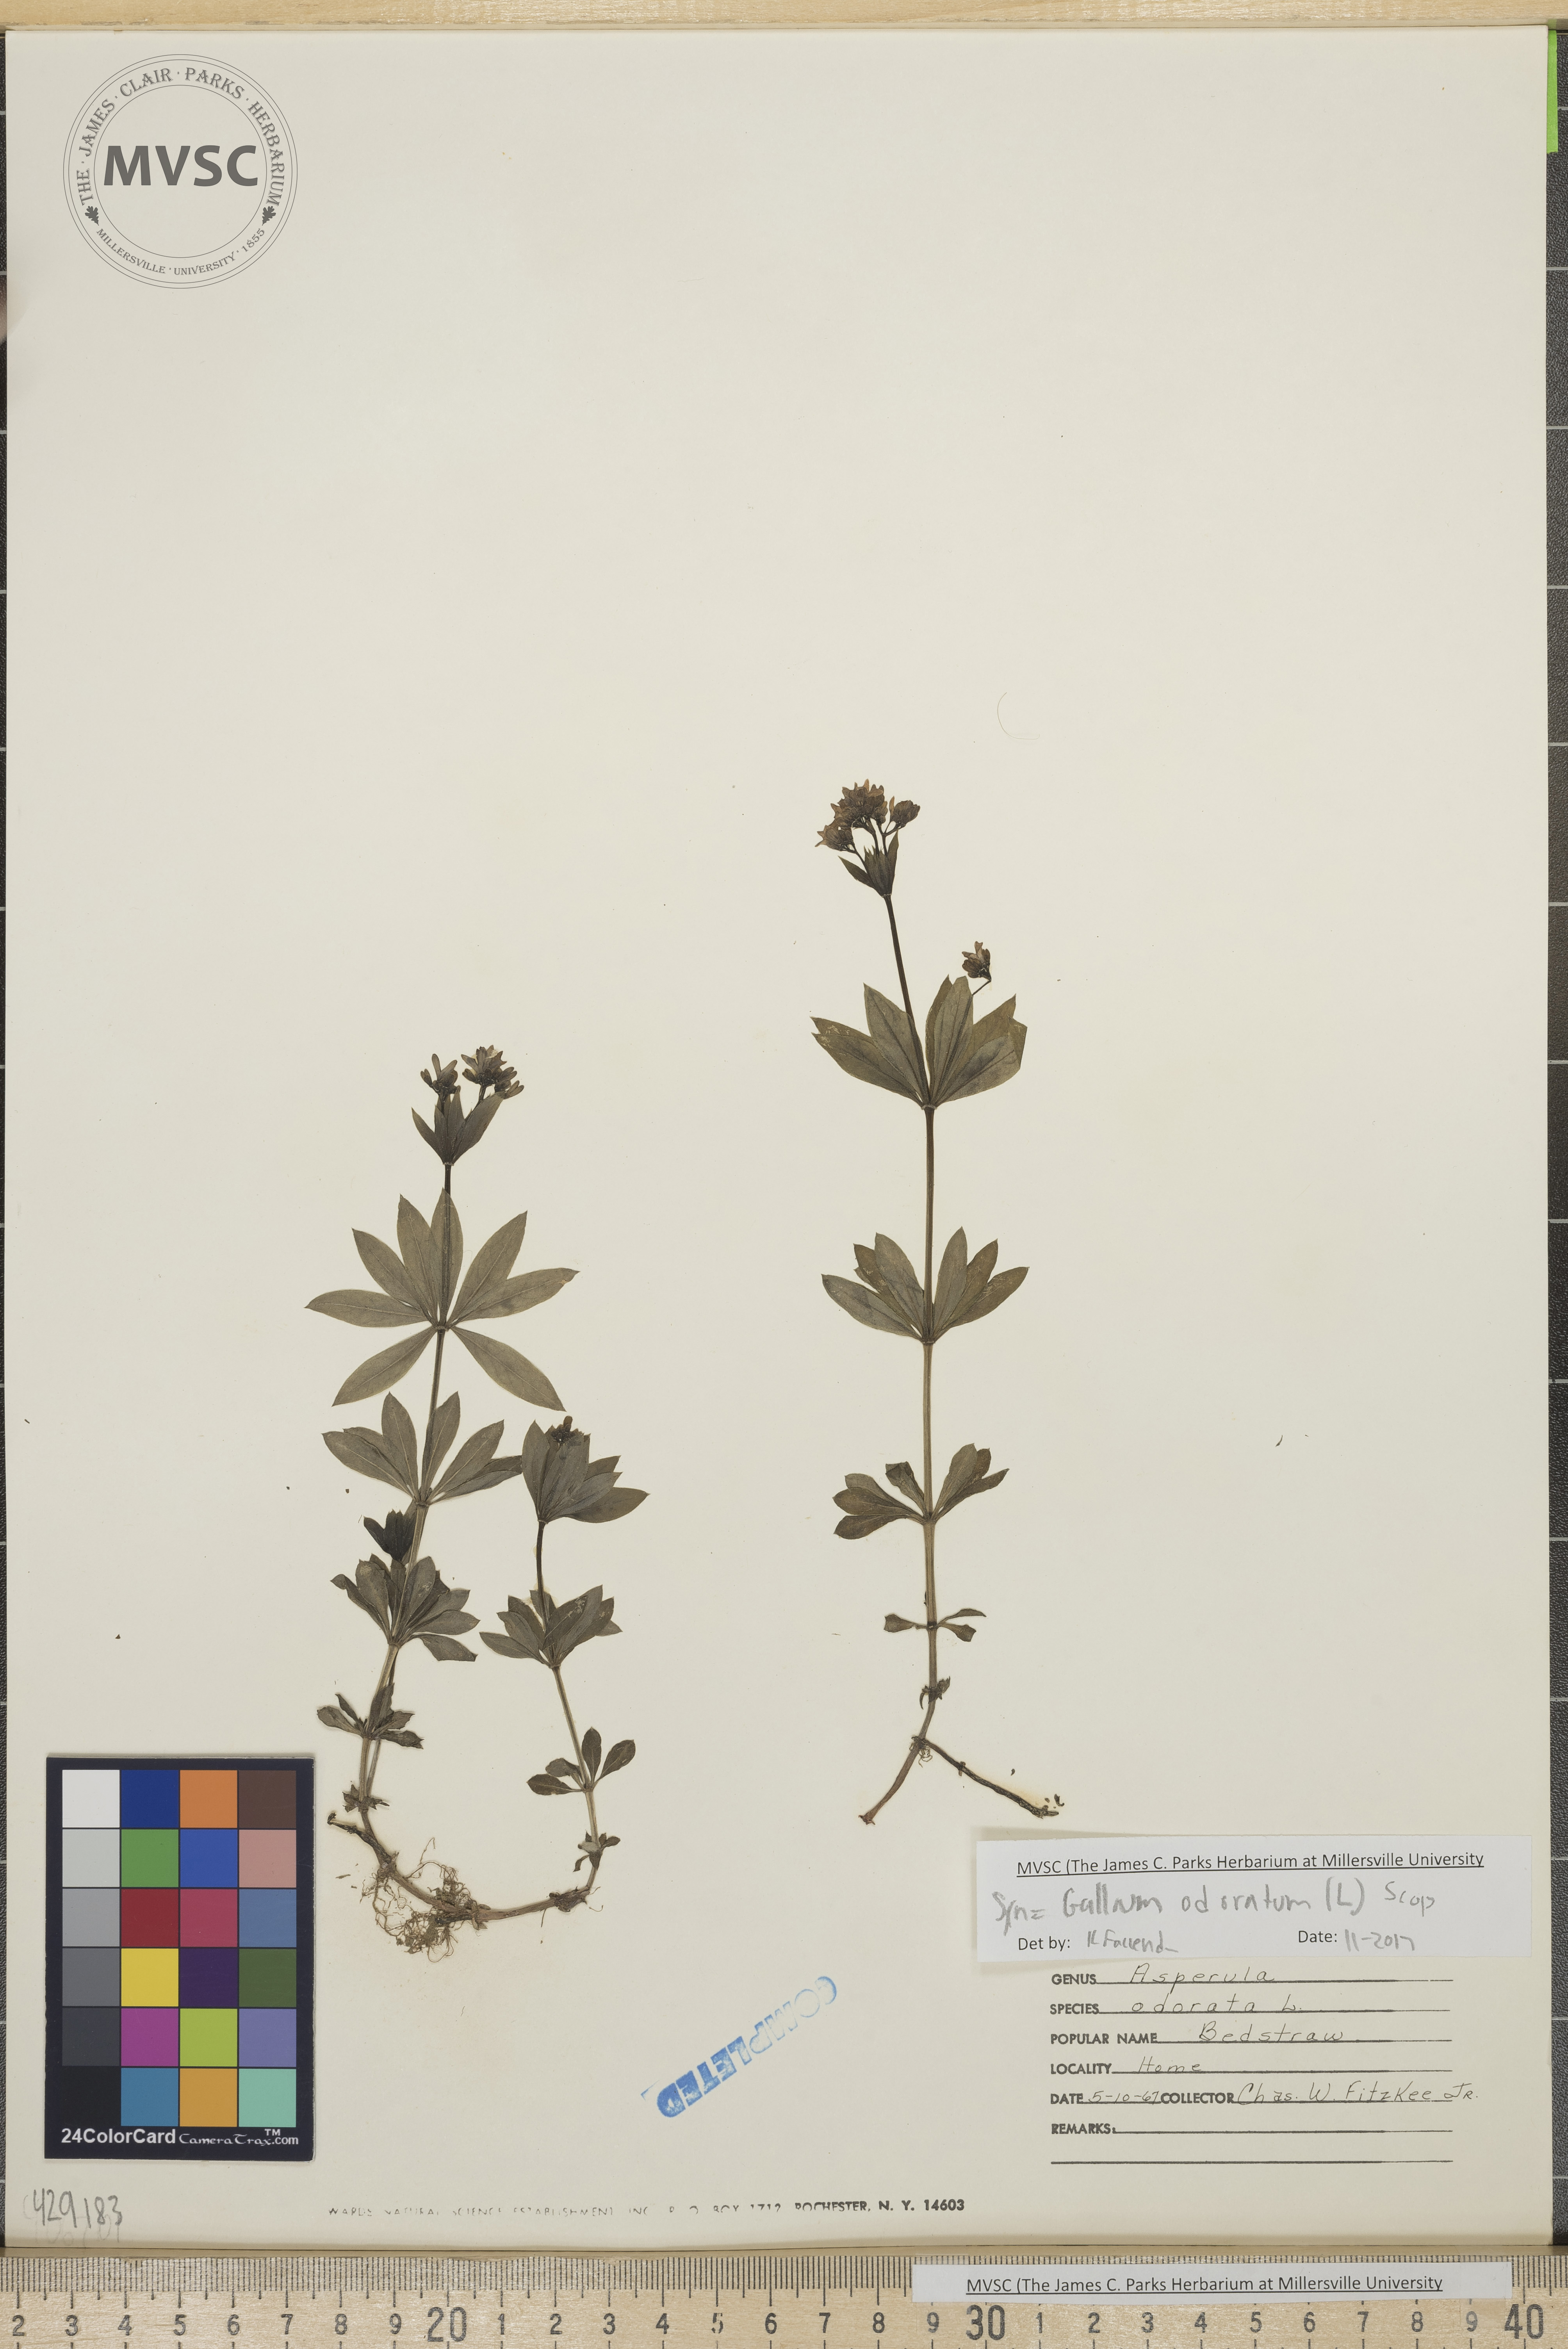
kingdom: Plantae
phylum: Tracheophyta
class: Magnoliopsida
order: Gentianales
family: Rubiaceae
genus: Galium
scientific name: Galium odoratum
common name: Sweet woodruff
